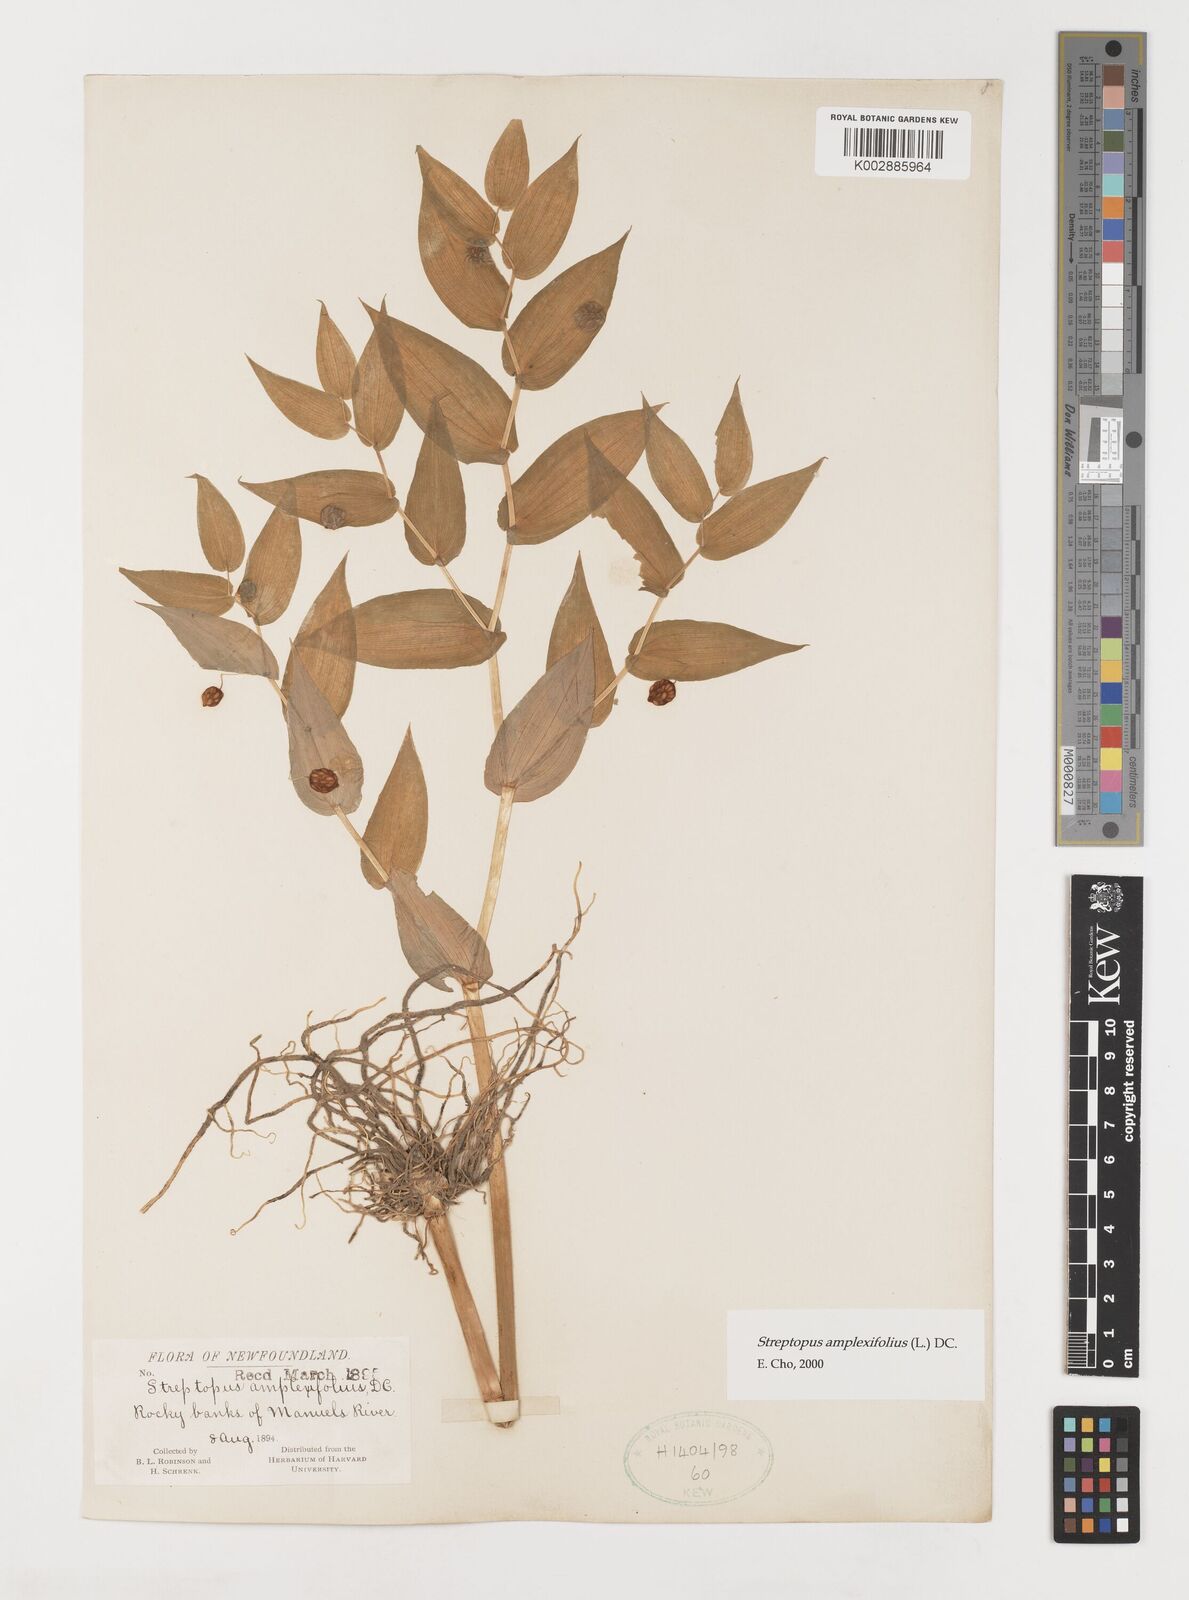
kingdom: Plantae
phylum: Tracheophyta
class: Liliopsida
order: Liliales
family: Liliaceae
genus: Streptopus
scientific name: Streptopus amplexifolius
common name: Clasp twisted stalk
